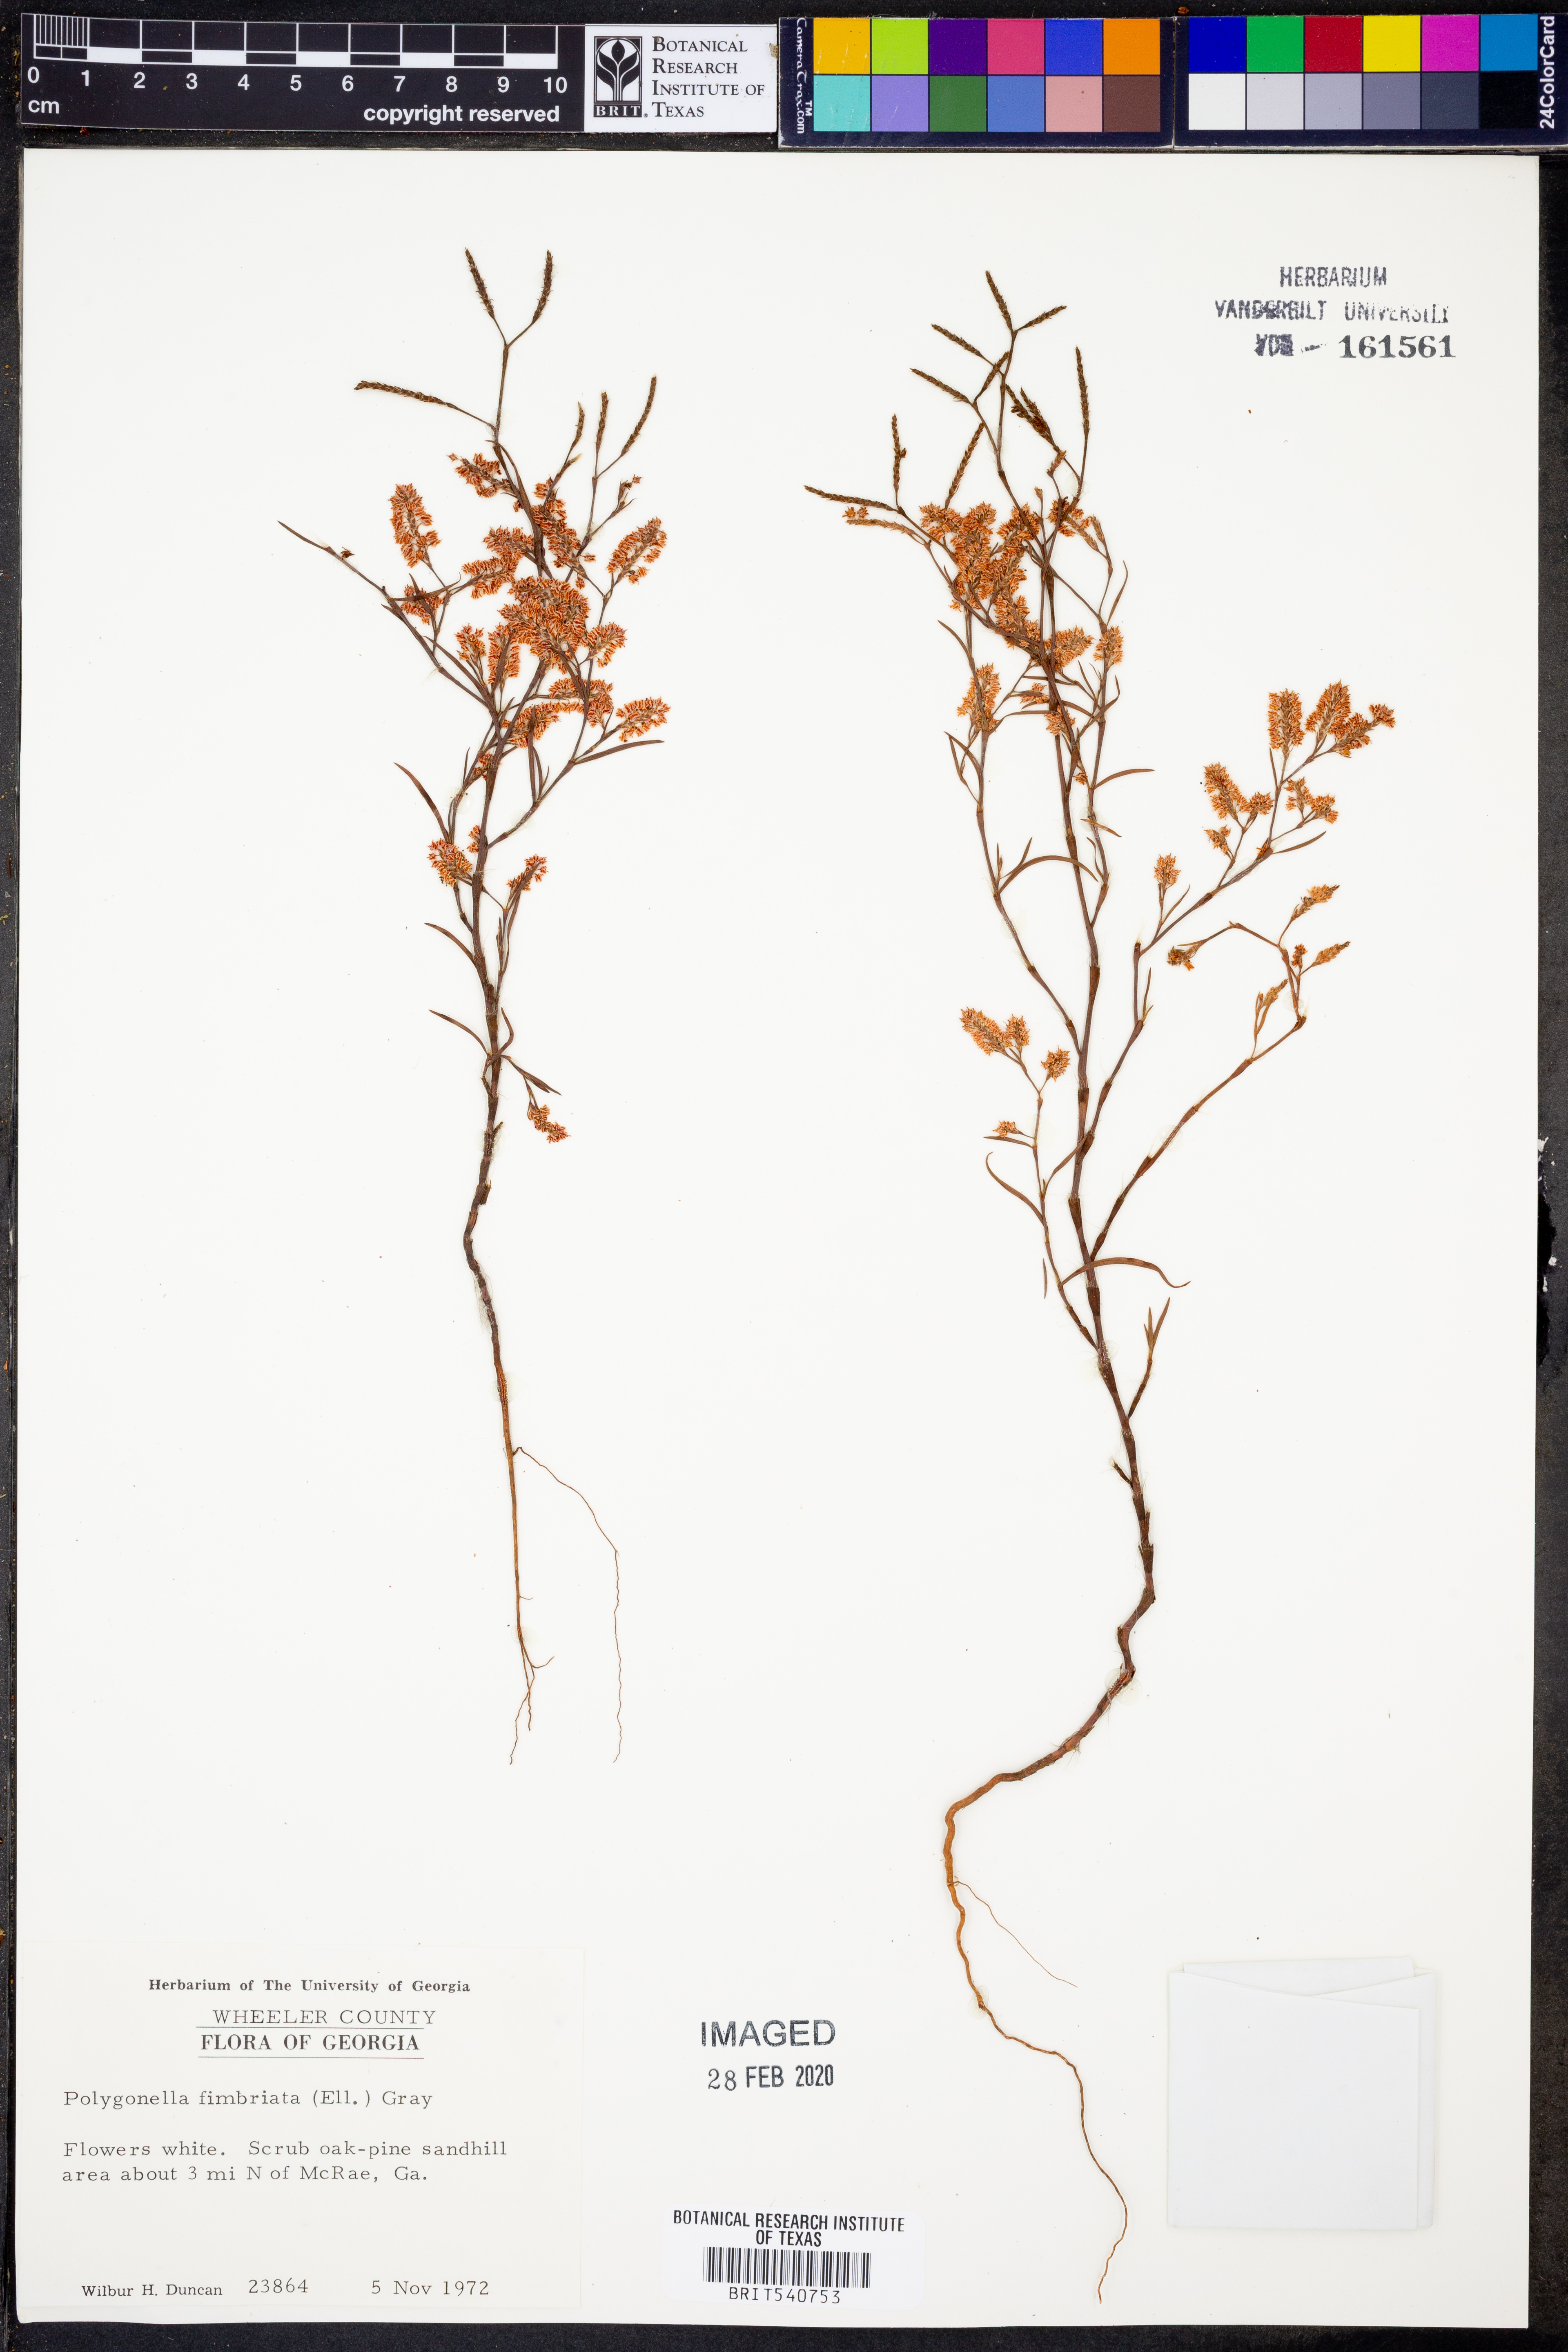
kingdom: Plantae
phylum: Tracheophyta
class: Magnoliopsida
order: Caryophyllales
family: Polygonaceae
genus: Polygonella
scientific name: Polygonella fimbriata
